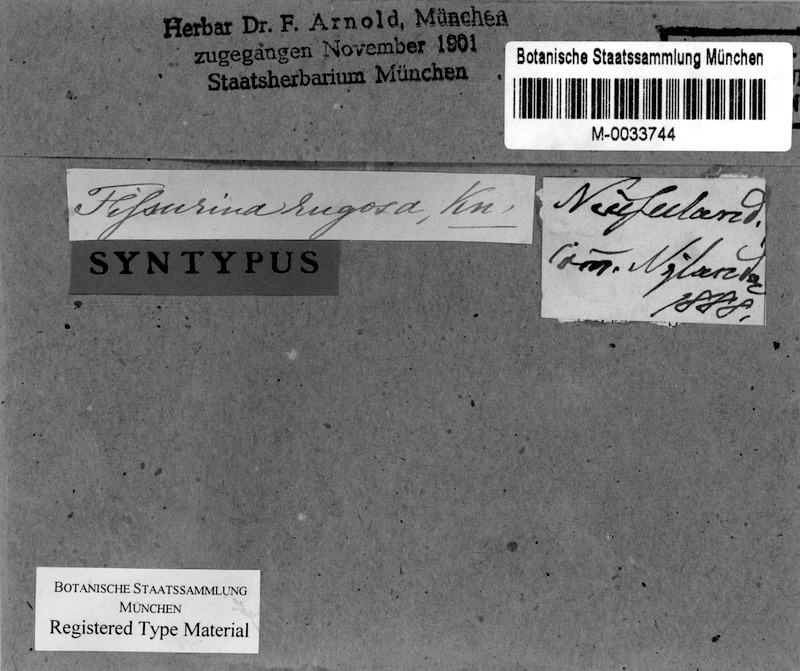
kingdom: Fungi
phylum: Ascomycota
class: Lecanoromycetes
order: Ostropales
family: Graphidaceae
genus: Fissurina
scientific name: Fissurina insidiosa
